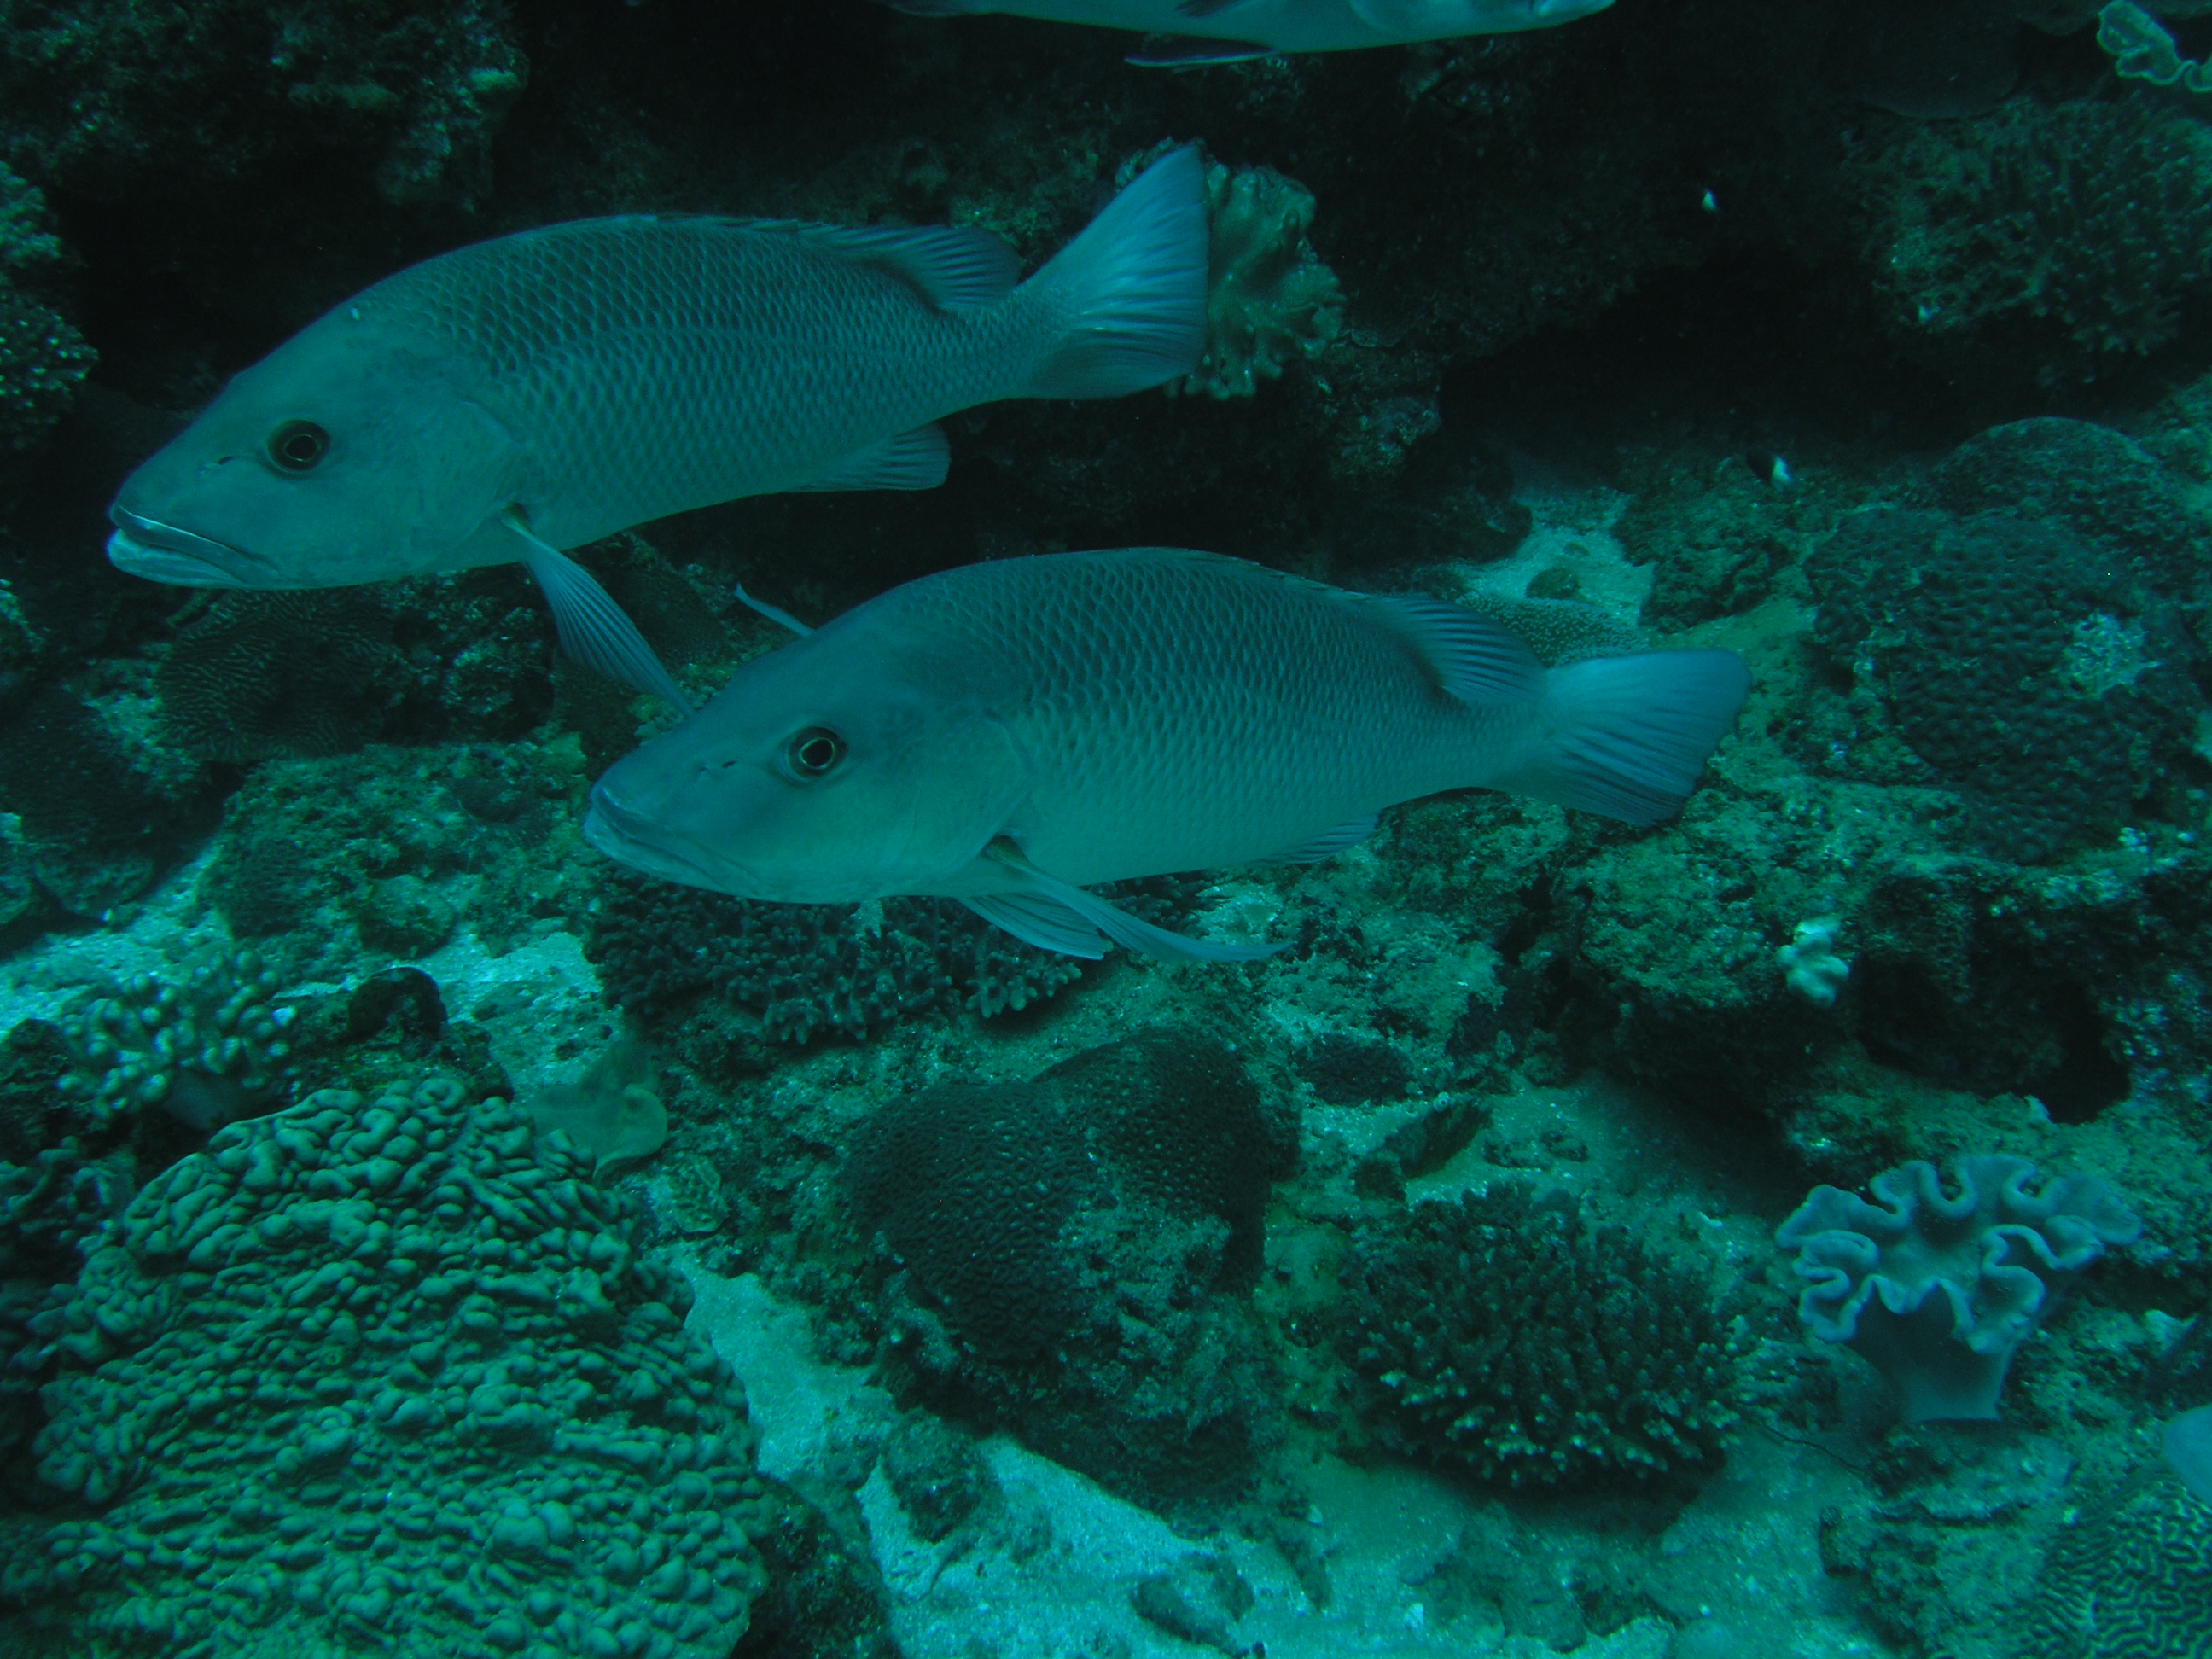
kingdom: Animalia
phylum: Chordata
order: Perciformes
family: Lutjanidae
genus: Lutjanus
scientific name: Lutjanus argentimaculatus
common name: Mangrove red snapper
